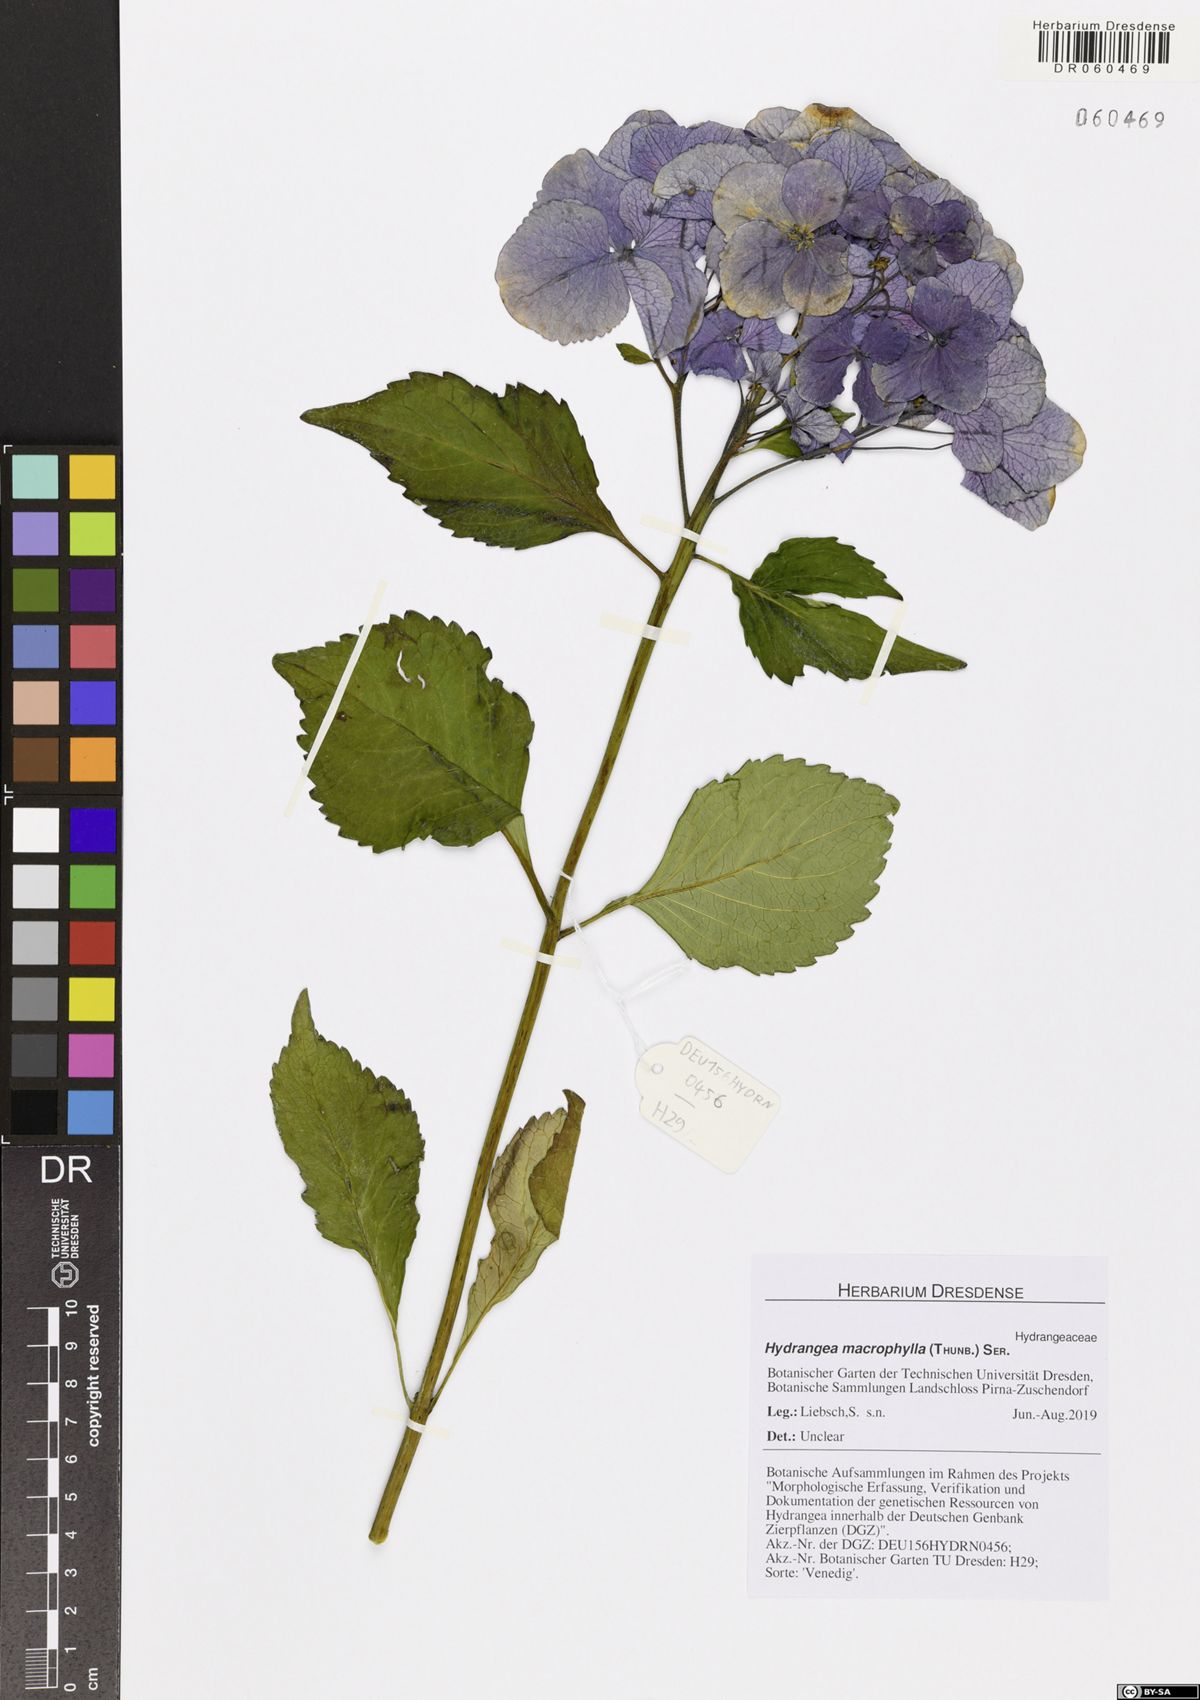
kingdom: Plantae
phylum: Tracheophyta
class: Magnoliopsida
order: Cornales
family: Hydrangeaceae
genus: Hydrangea
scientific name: Hydrangea macrophylla
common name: Hydrangea
